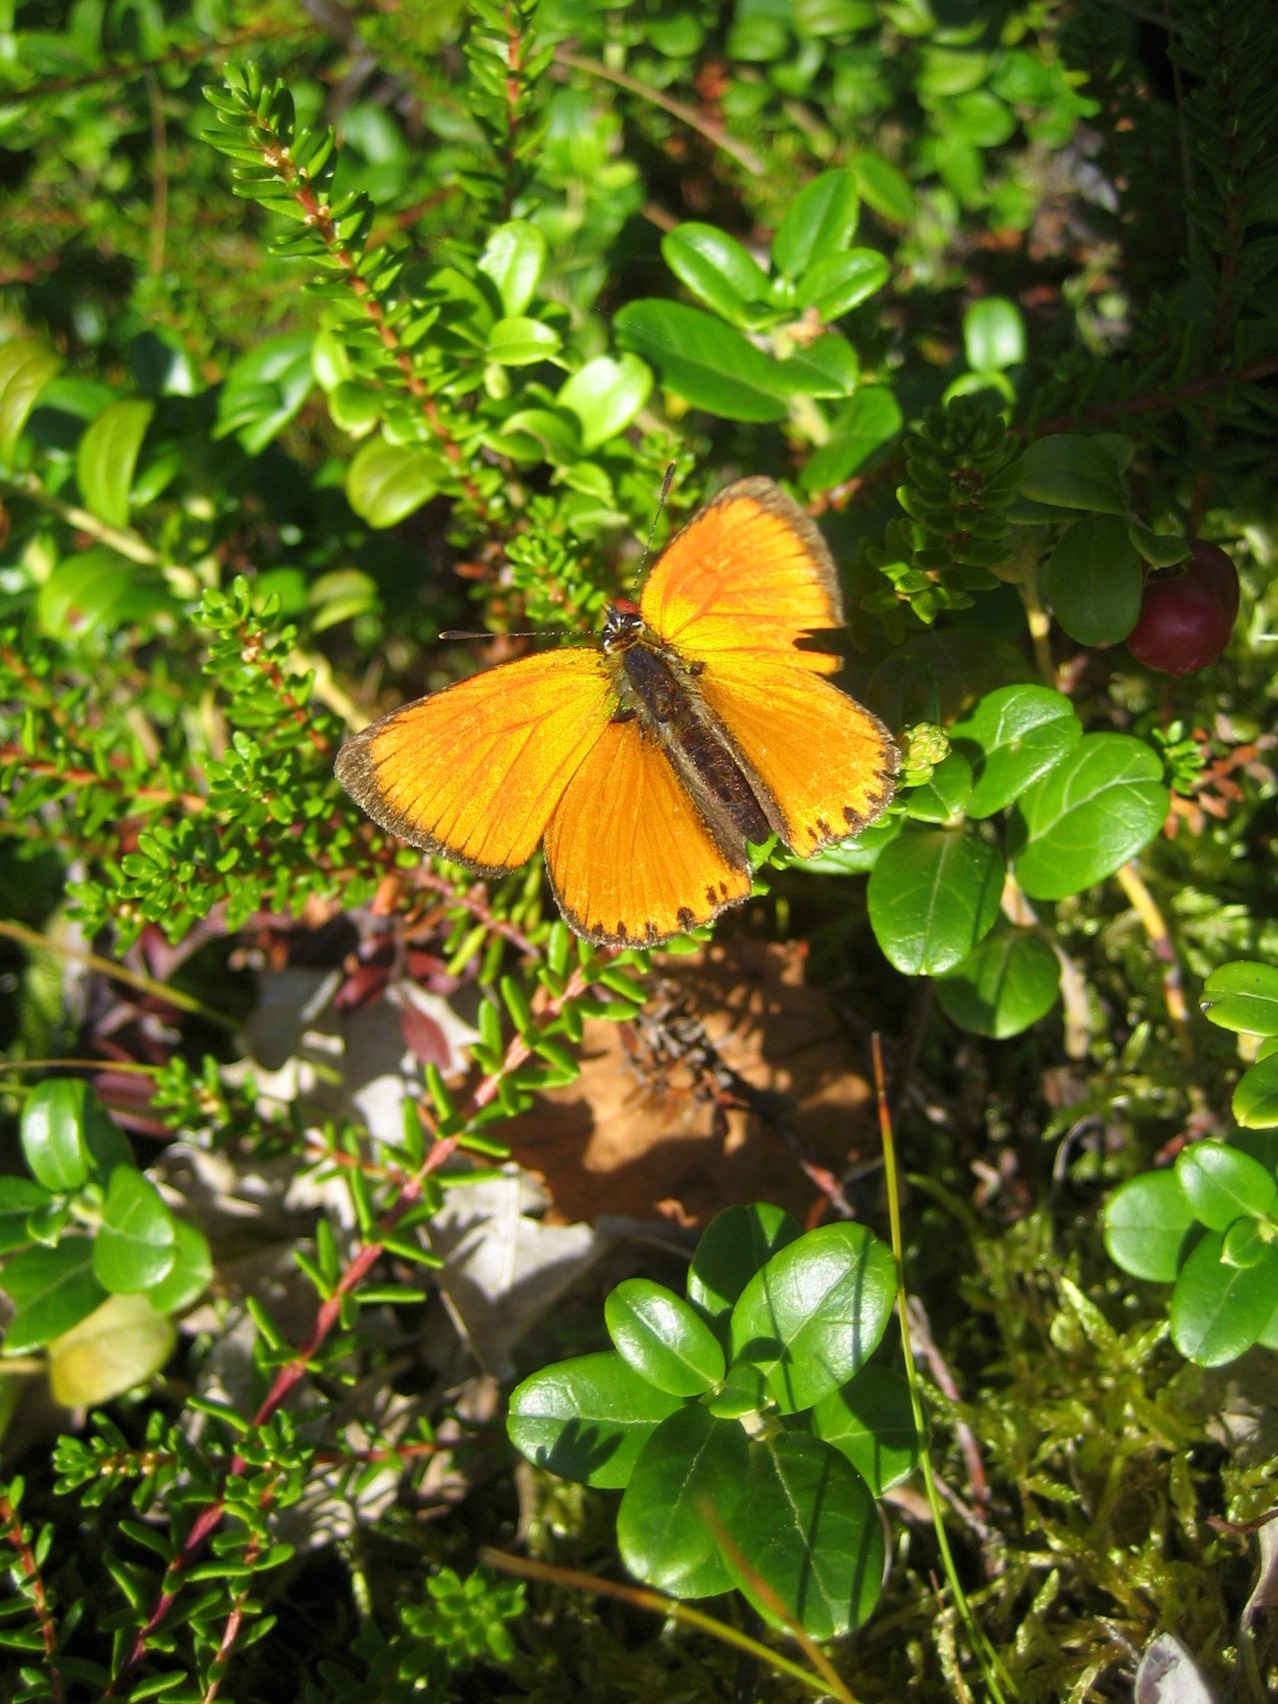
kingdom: Animalia
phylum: Arthropoda
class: Insecta
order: Lepidoptera
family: Lycaenidae
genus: Lycaena
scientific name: Lycaena virgaureae
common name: Dukatsommerfugl
